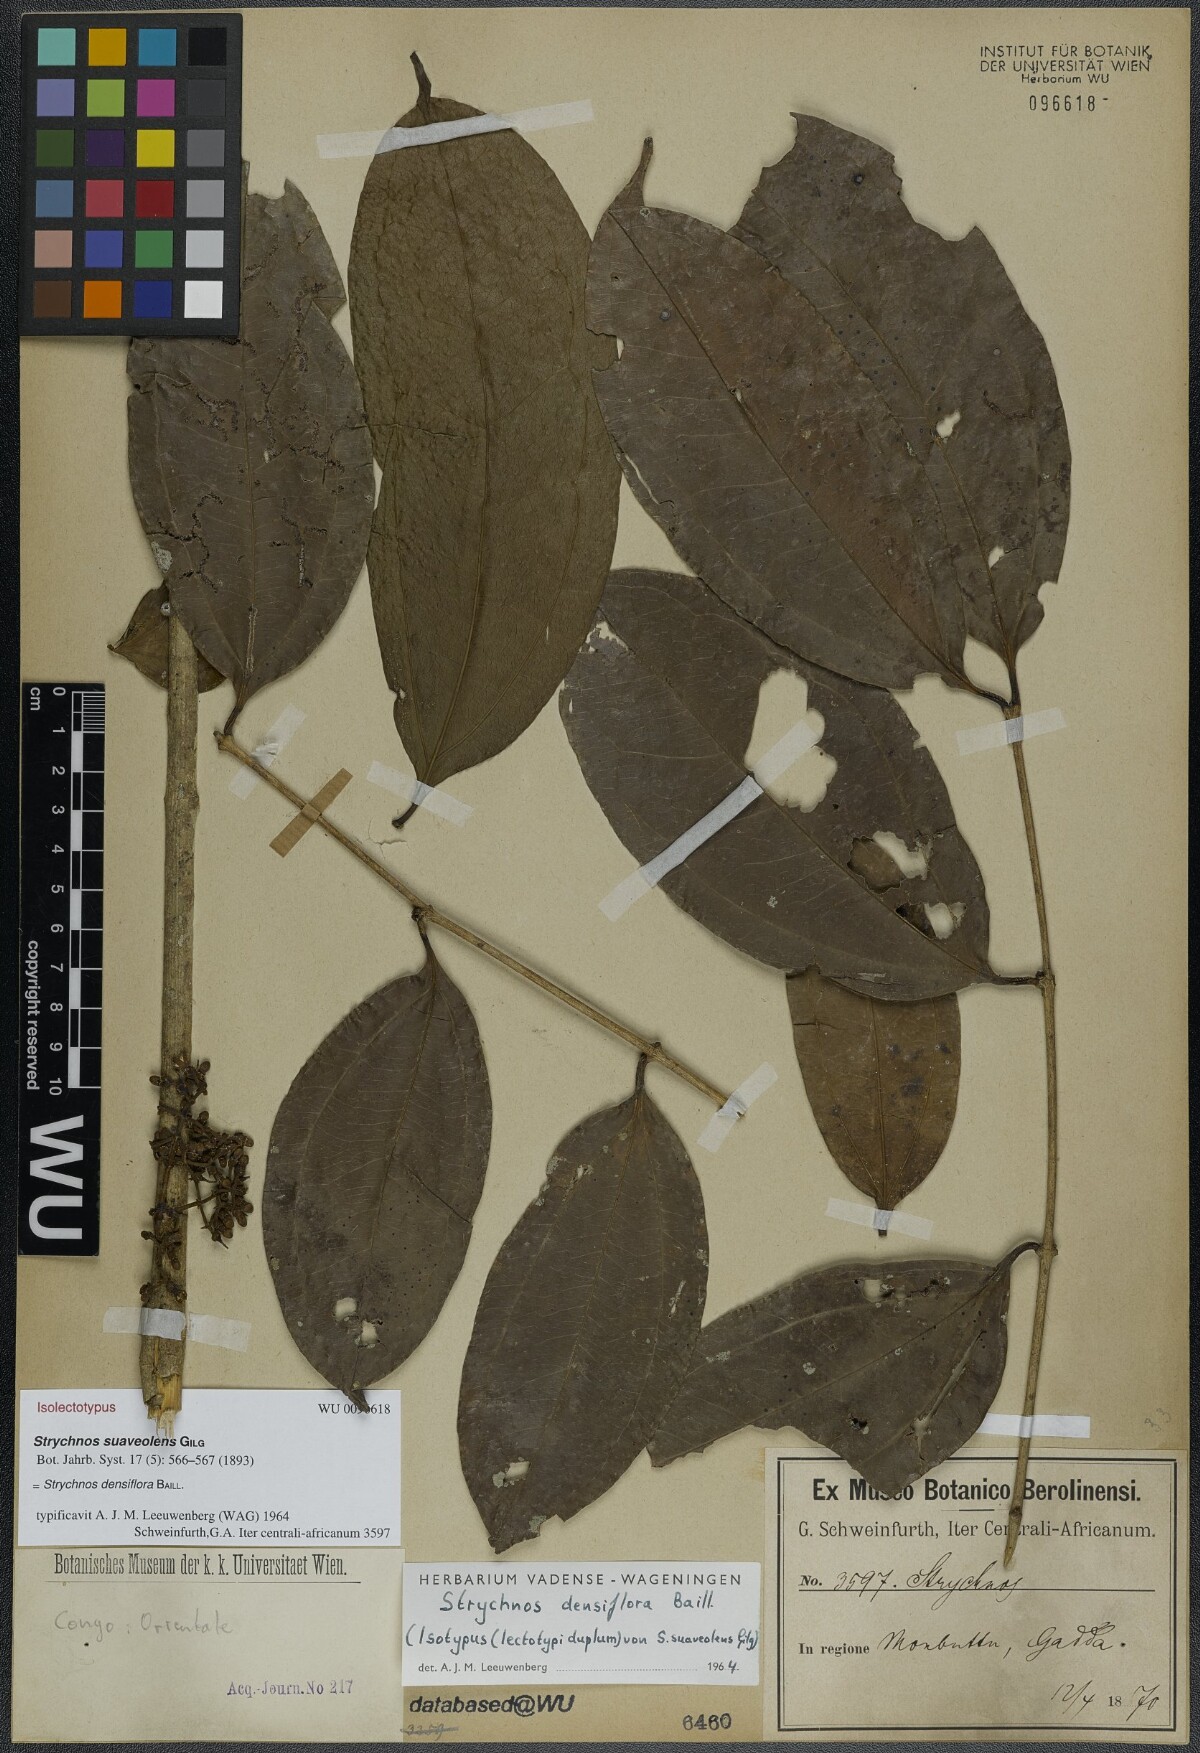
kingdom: Plantae
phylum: Tracheophyta
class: Magnoliopsida
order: Gentianales
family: Loganiaceae
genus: Strychnos
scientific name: Strychnos densiflora
